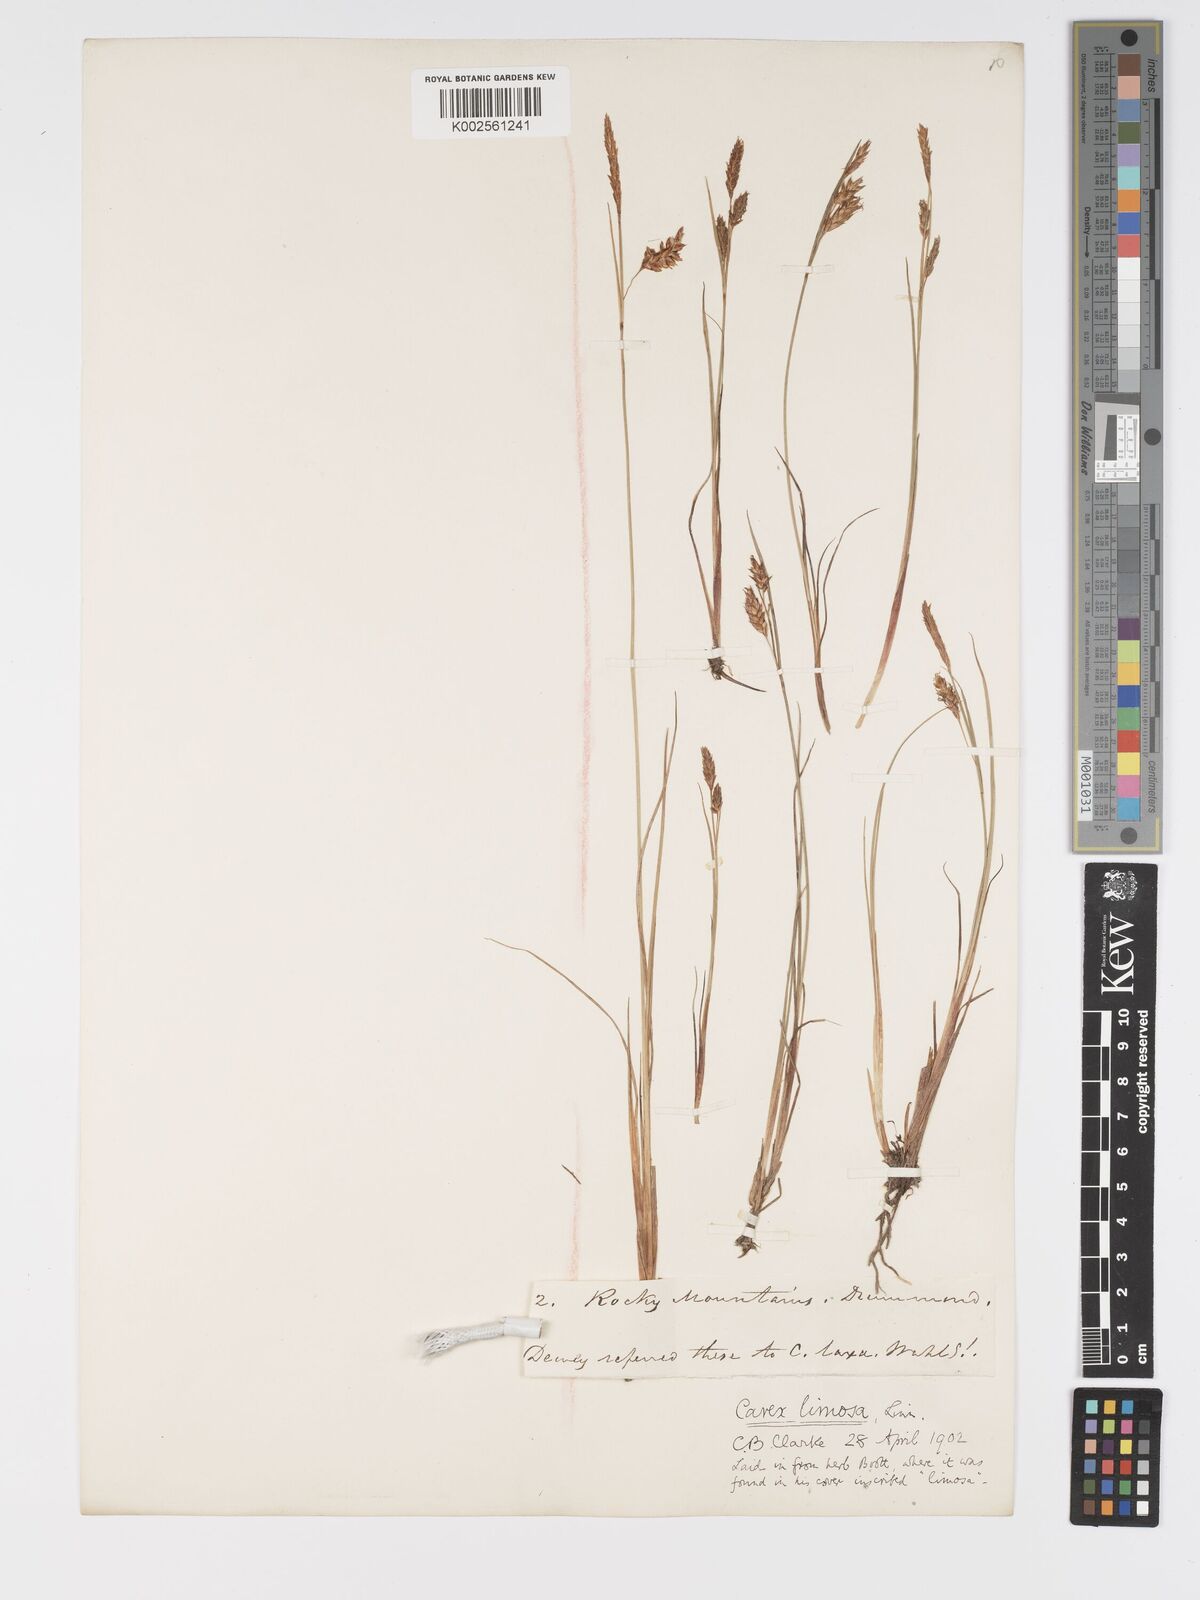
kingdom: Plantae
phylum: Tracheophyta
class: Liliopsida
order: Poales
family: Cyperaceae
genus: Carex
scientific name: Carex limosa
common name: Bog sedge
